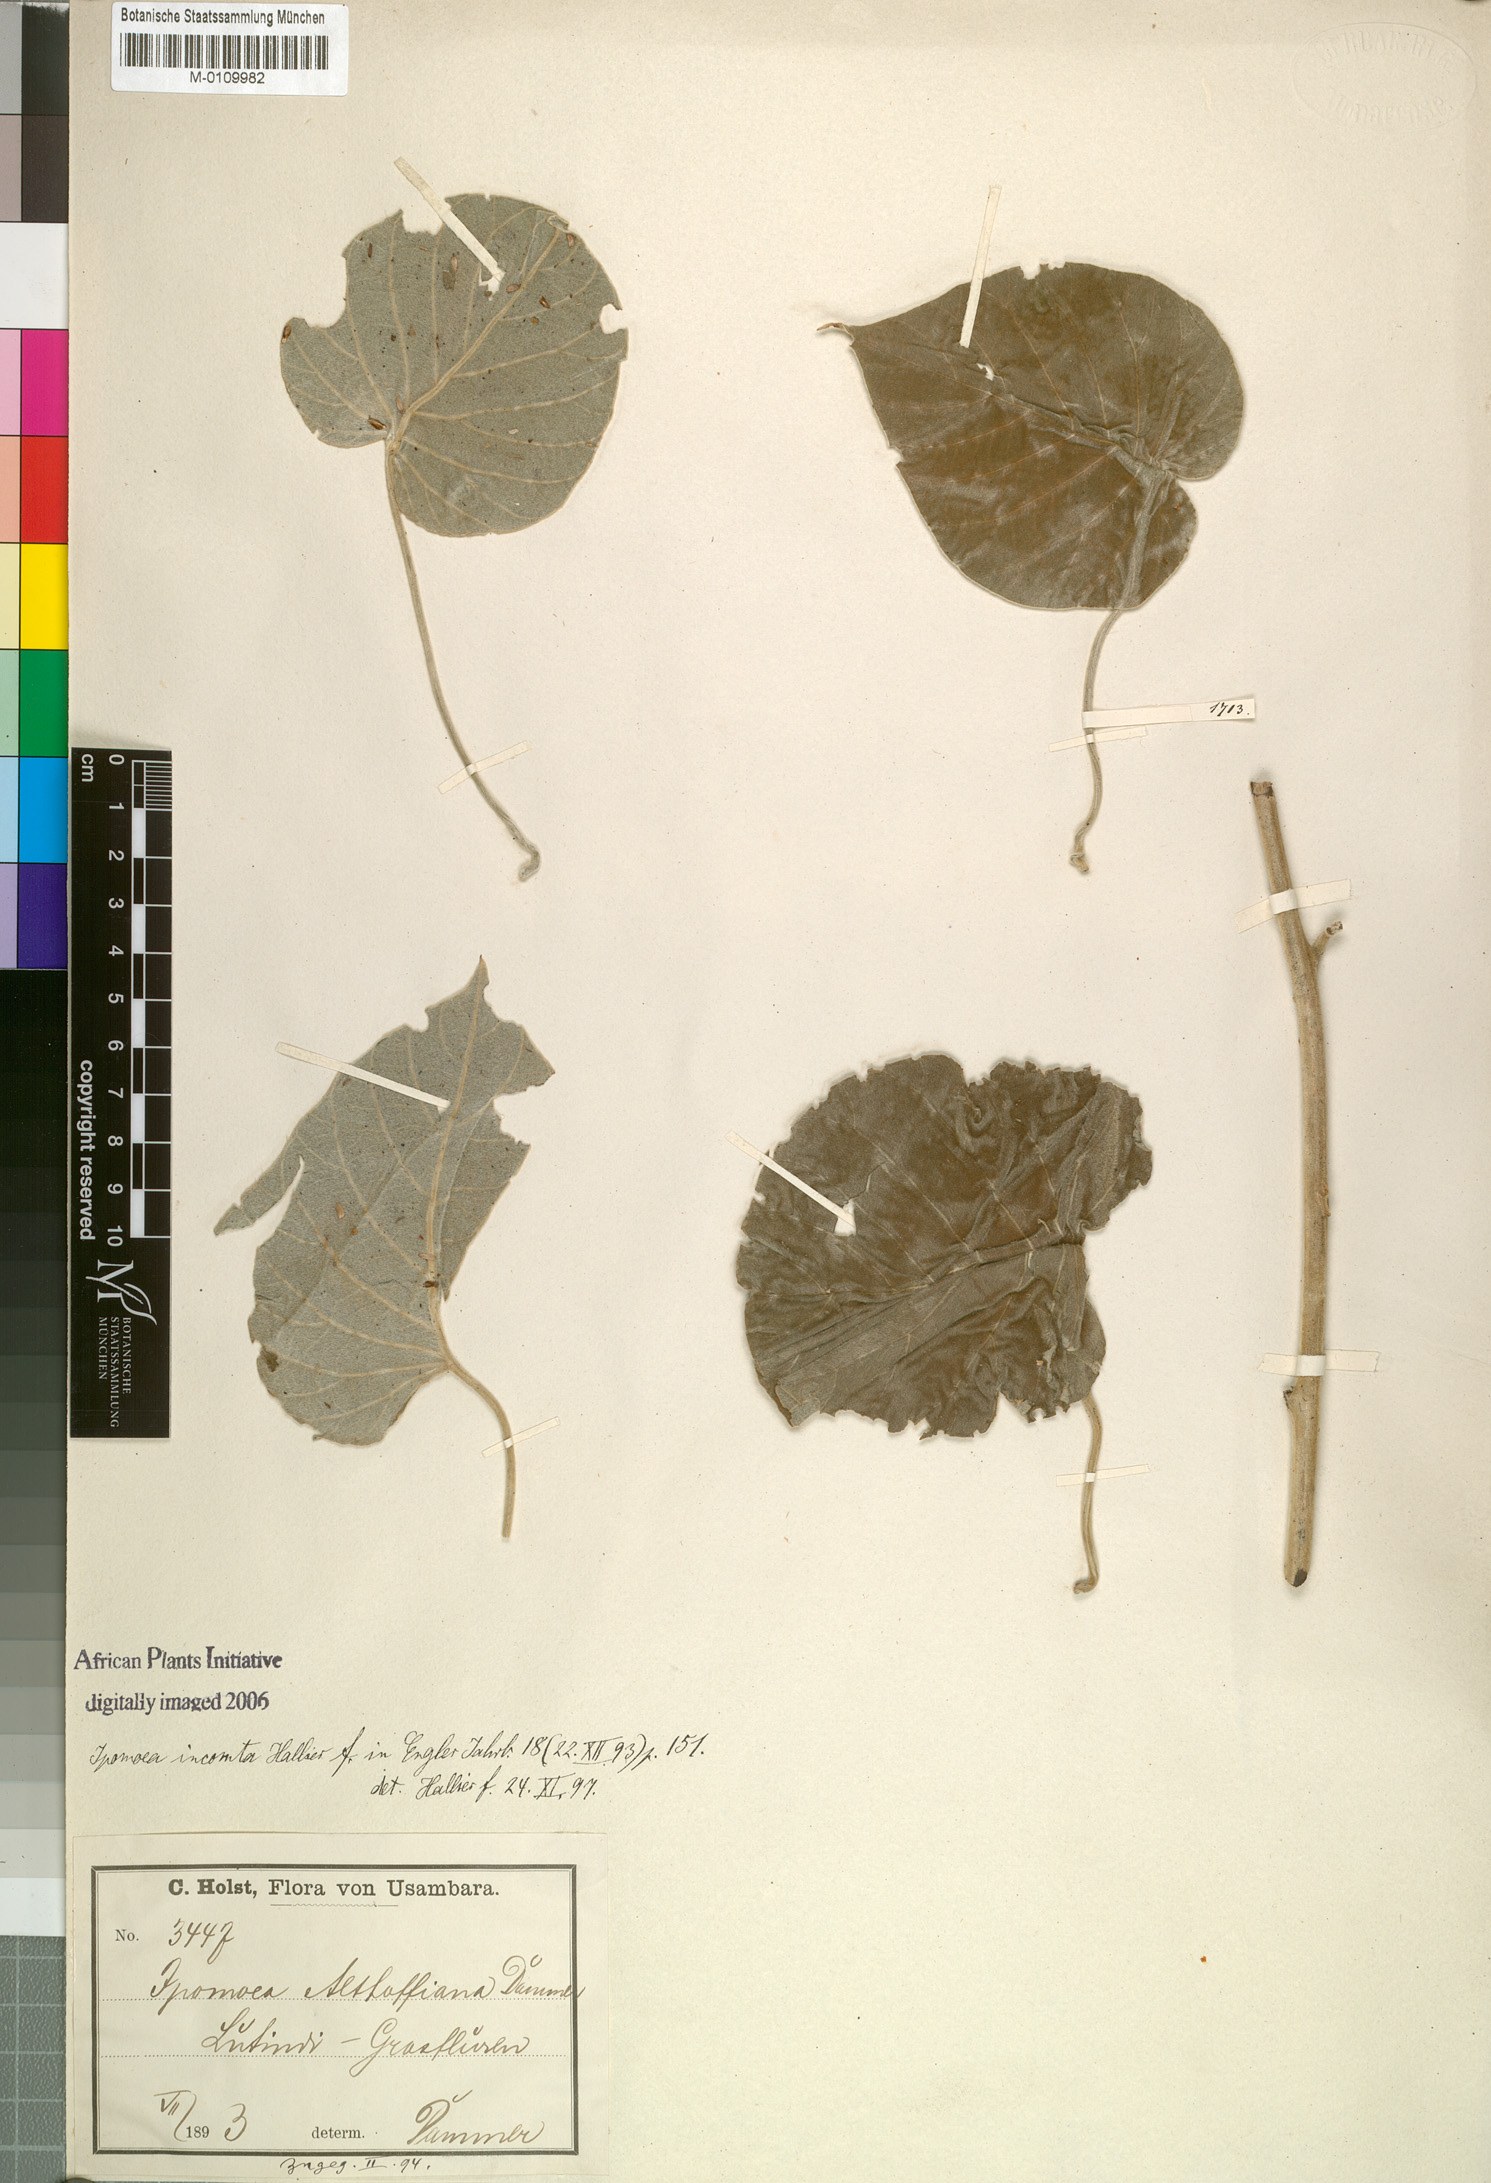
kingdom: Plantae
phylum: Tracheophyta
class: Magnoliopsida
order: Solanales
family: Convolvulaceae
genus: Stictocardia
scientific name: Stictocardia incomta
